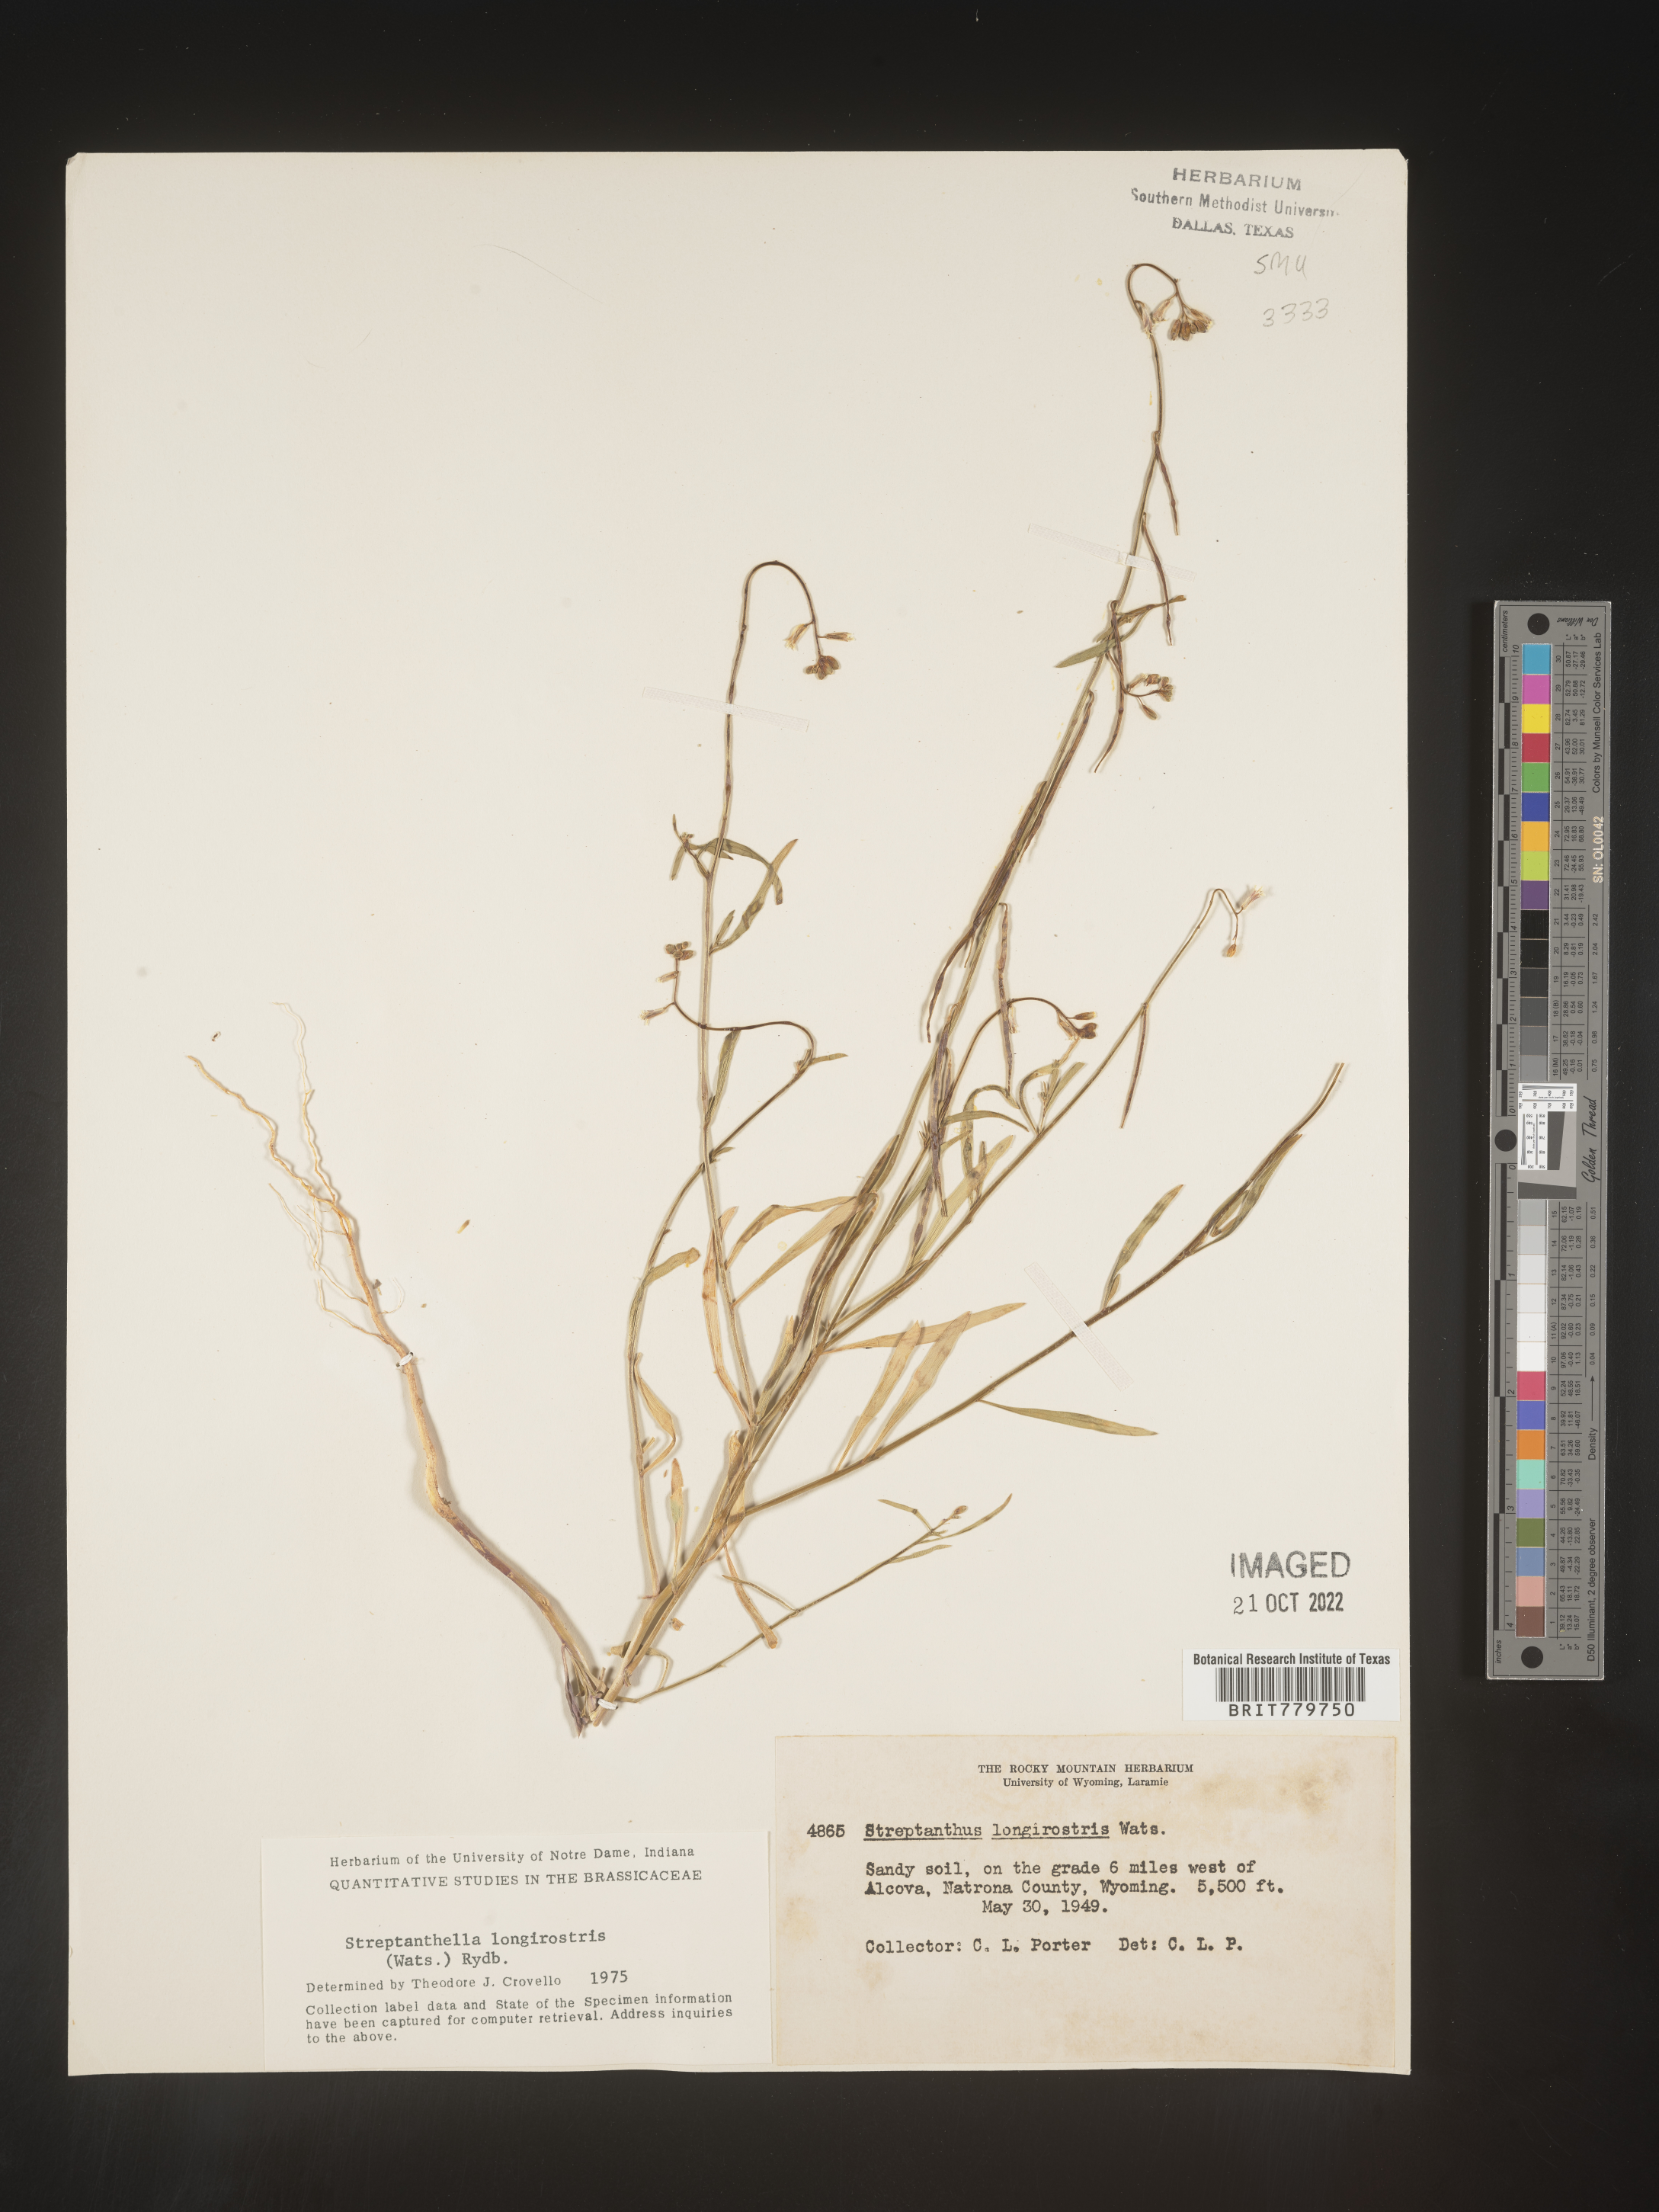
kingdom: Plantae
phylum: Tracheophyta
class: Magnoliopsida
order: Brassicales
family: Brassicaceae
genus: Streptanthus
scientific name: Streptanthus
